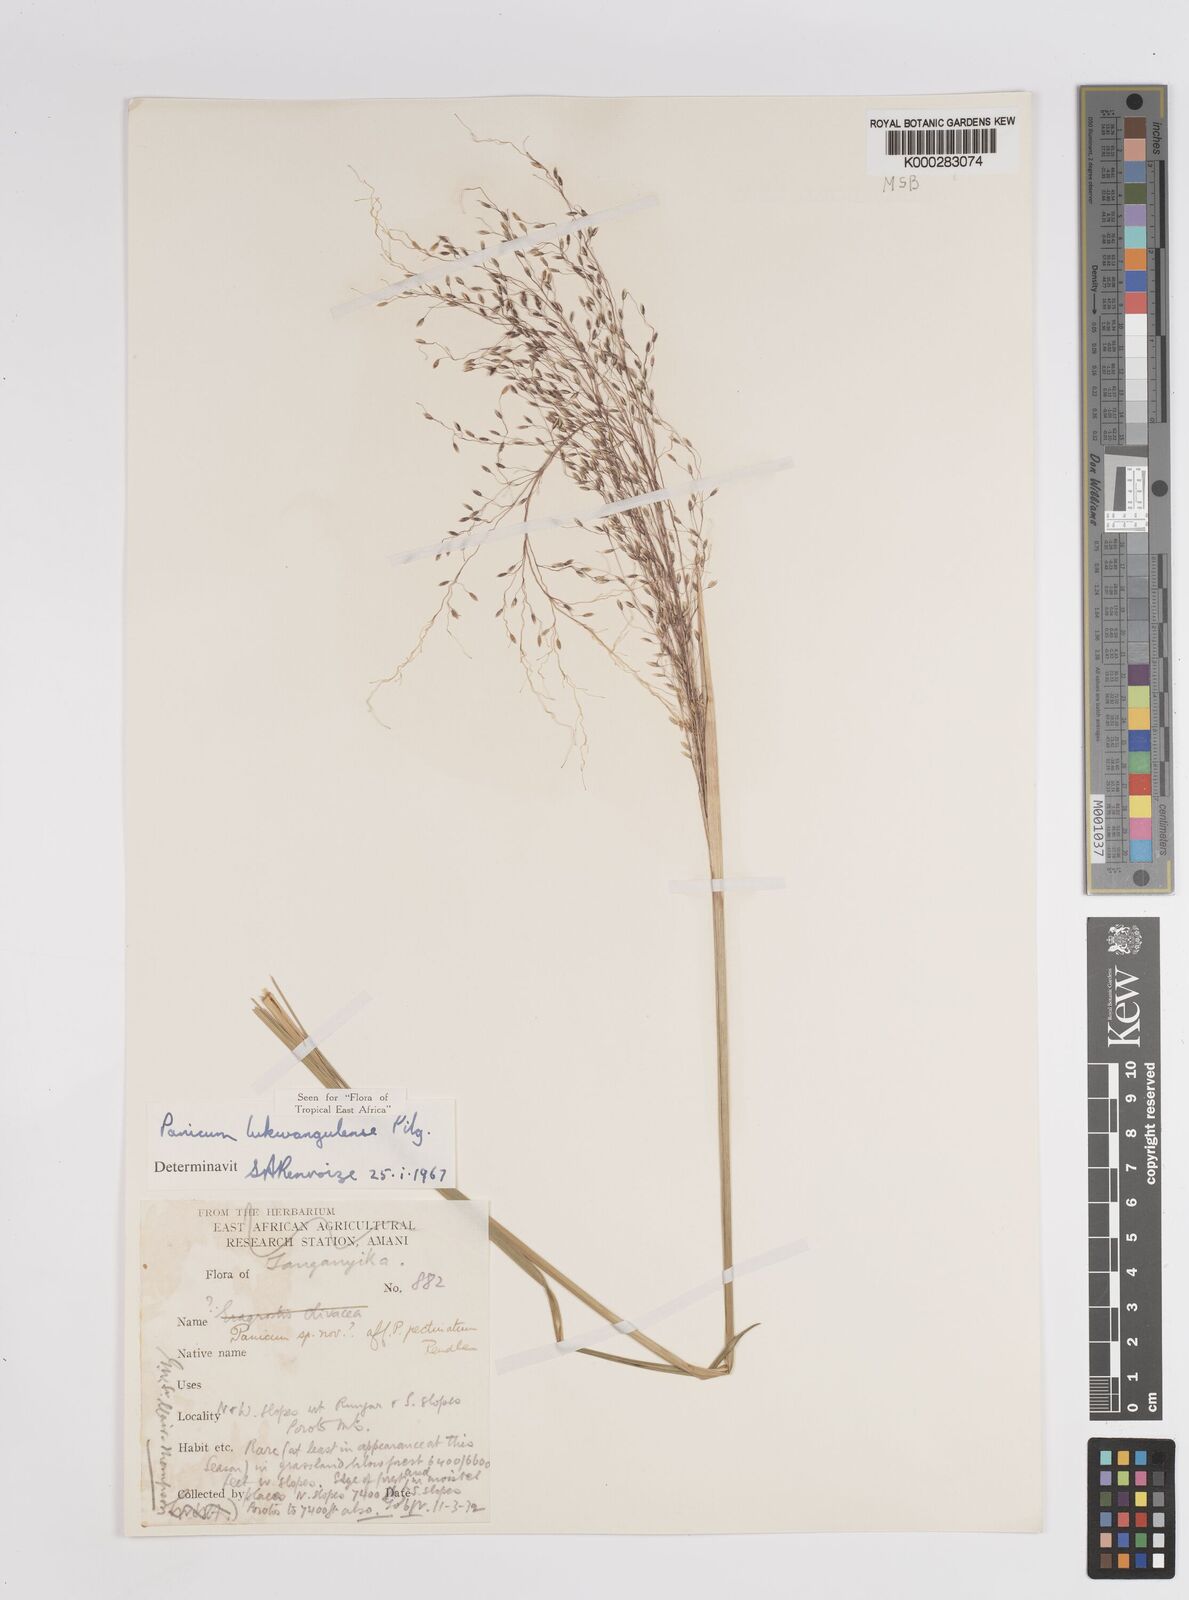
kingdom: Plantae
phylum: Tracheophyta
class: Liliopsida
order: Poales
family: Poaceae
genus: Adenochloa
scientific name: Adenochloa lukwangulense
